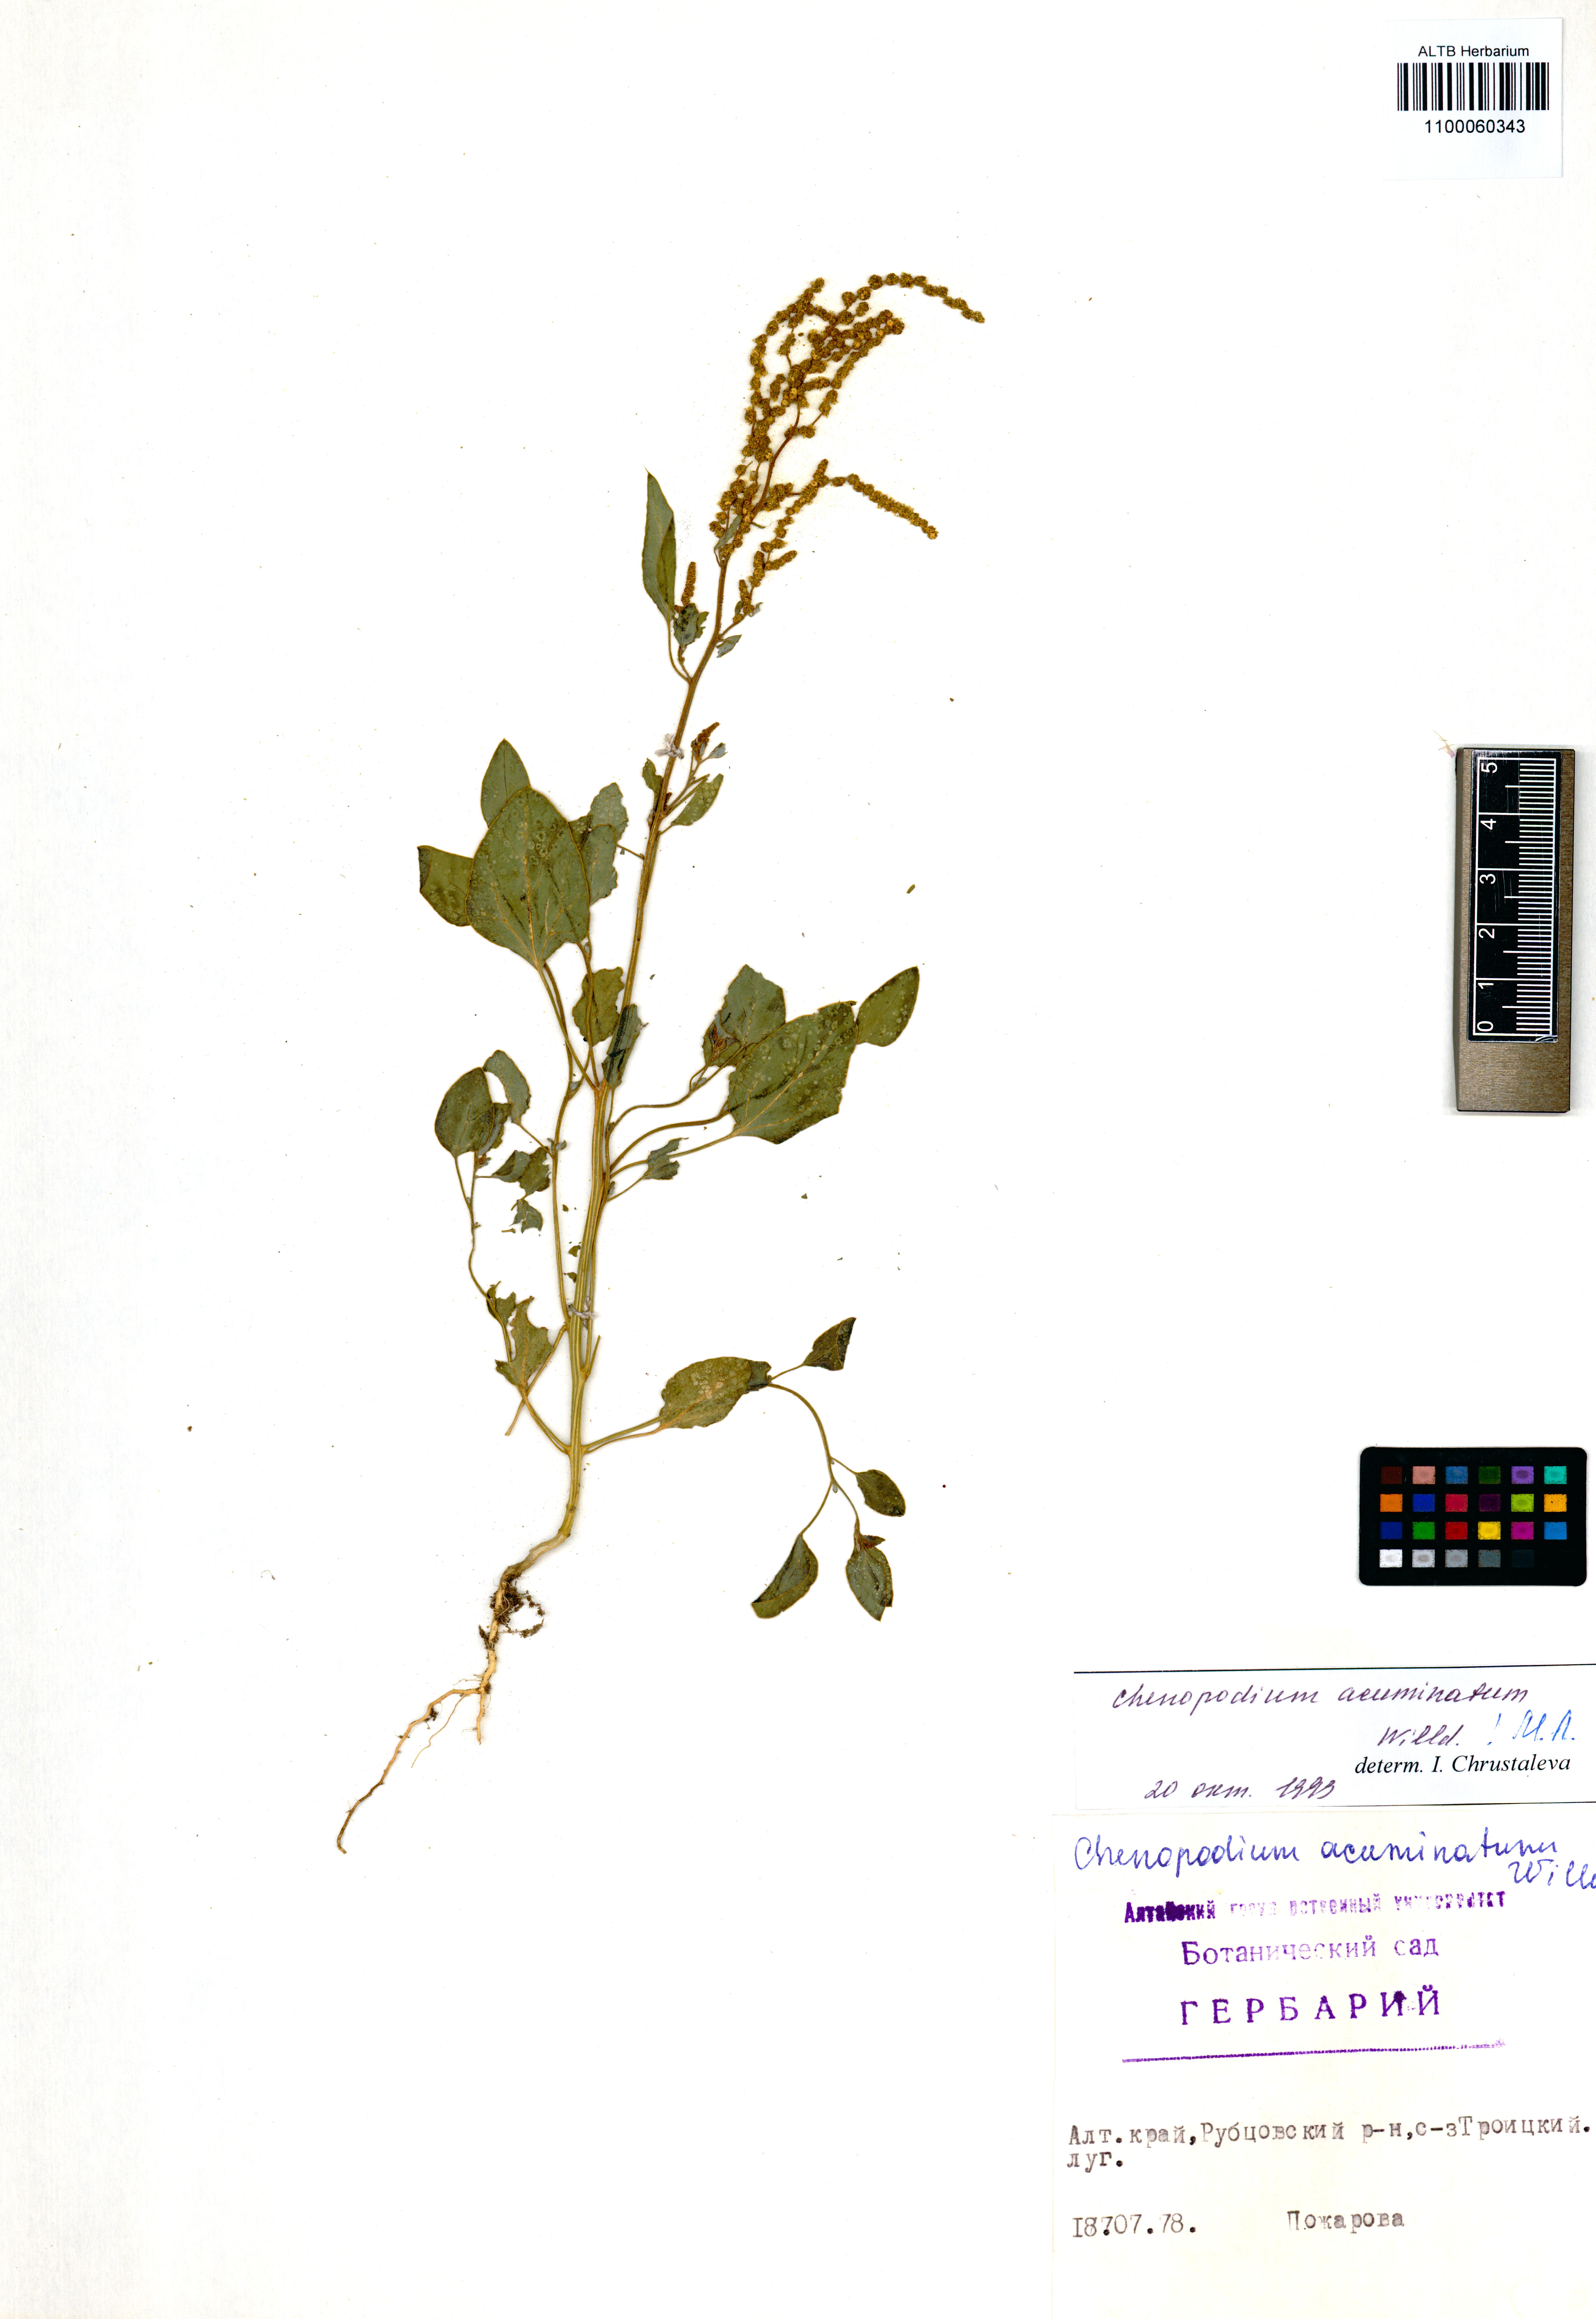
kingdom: Plantae
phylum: Tracheophyta
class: Magnoliopsida
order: Caryophyllales
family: Amaranthaceae
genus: Chenopodium
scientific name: Chenopodium acuminatum
